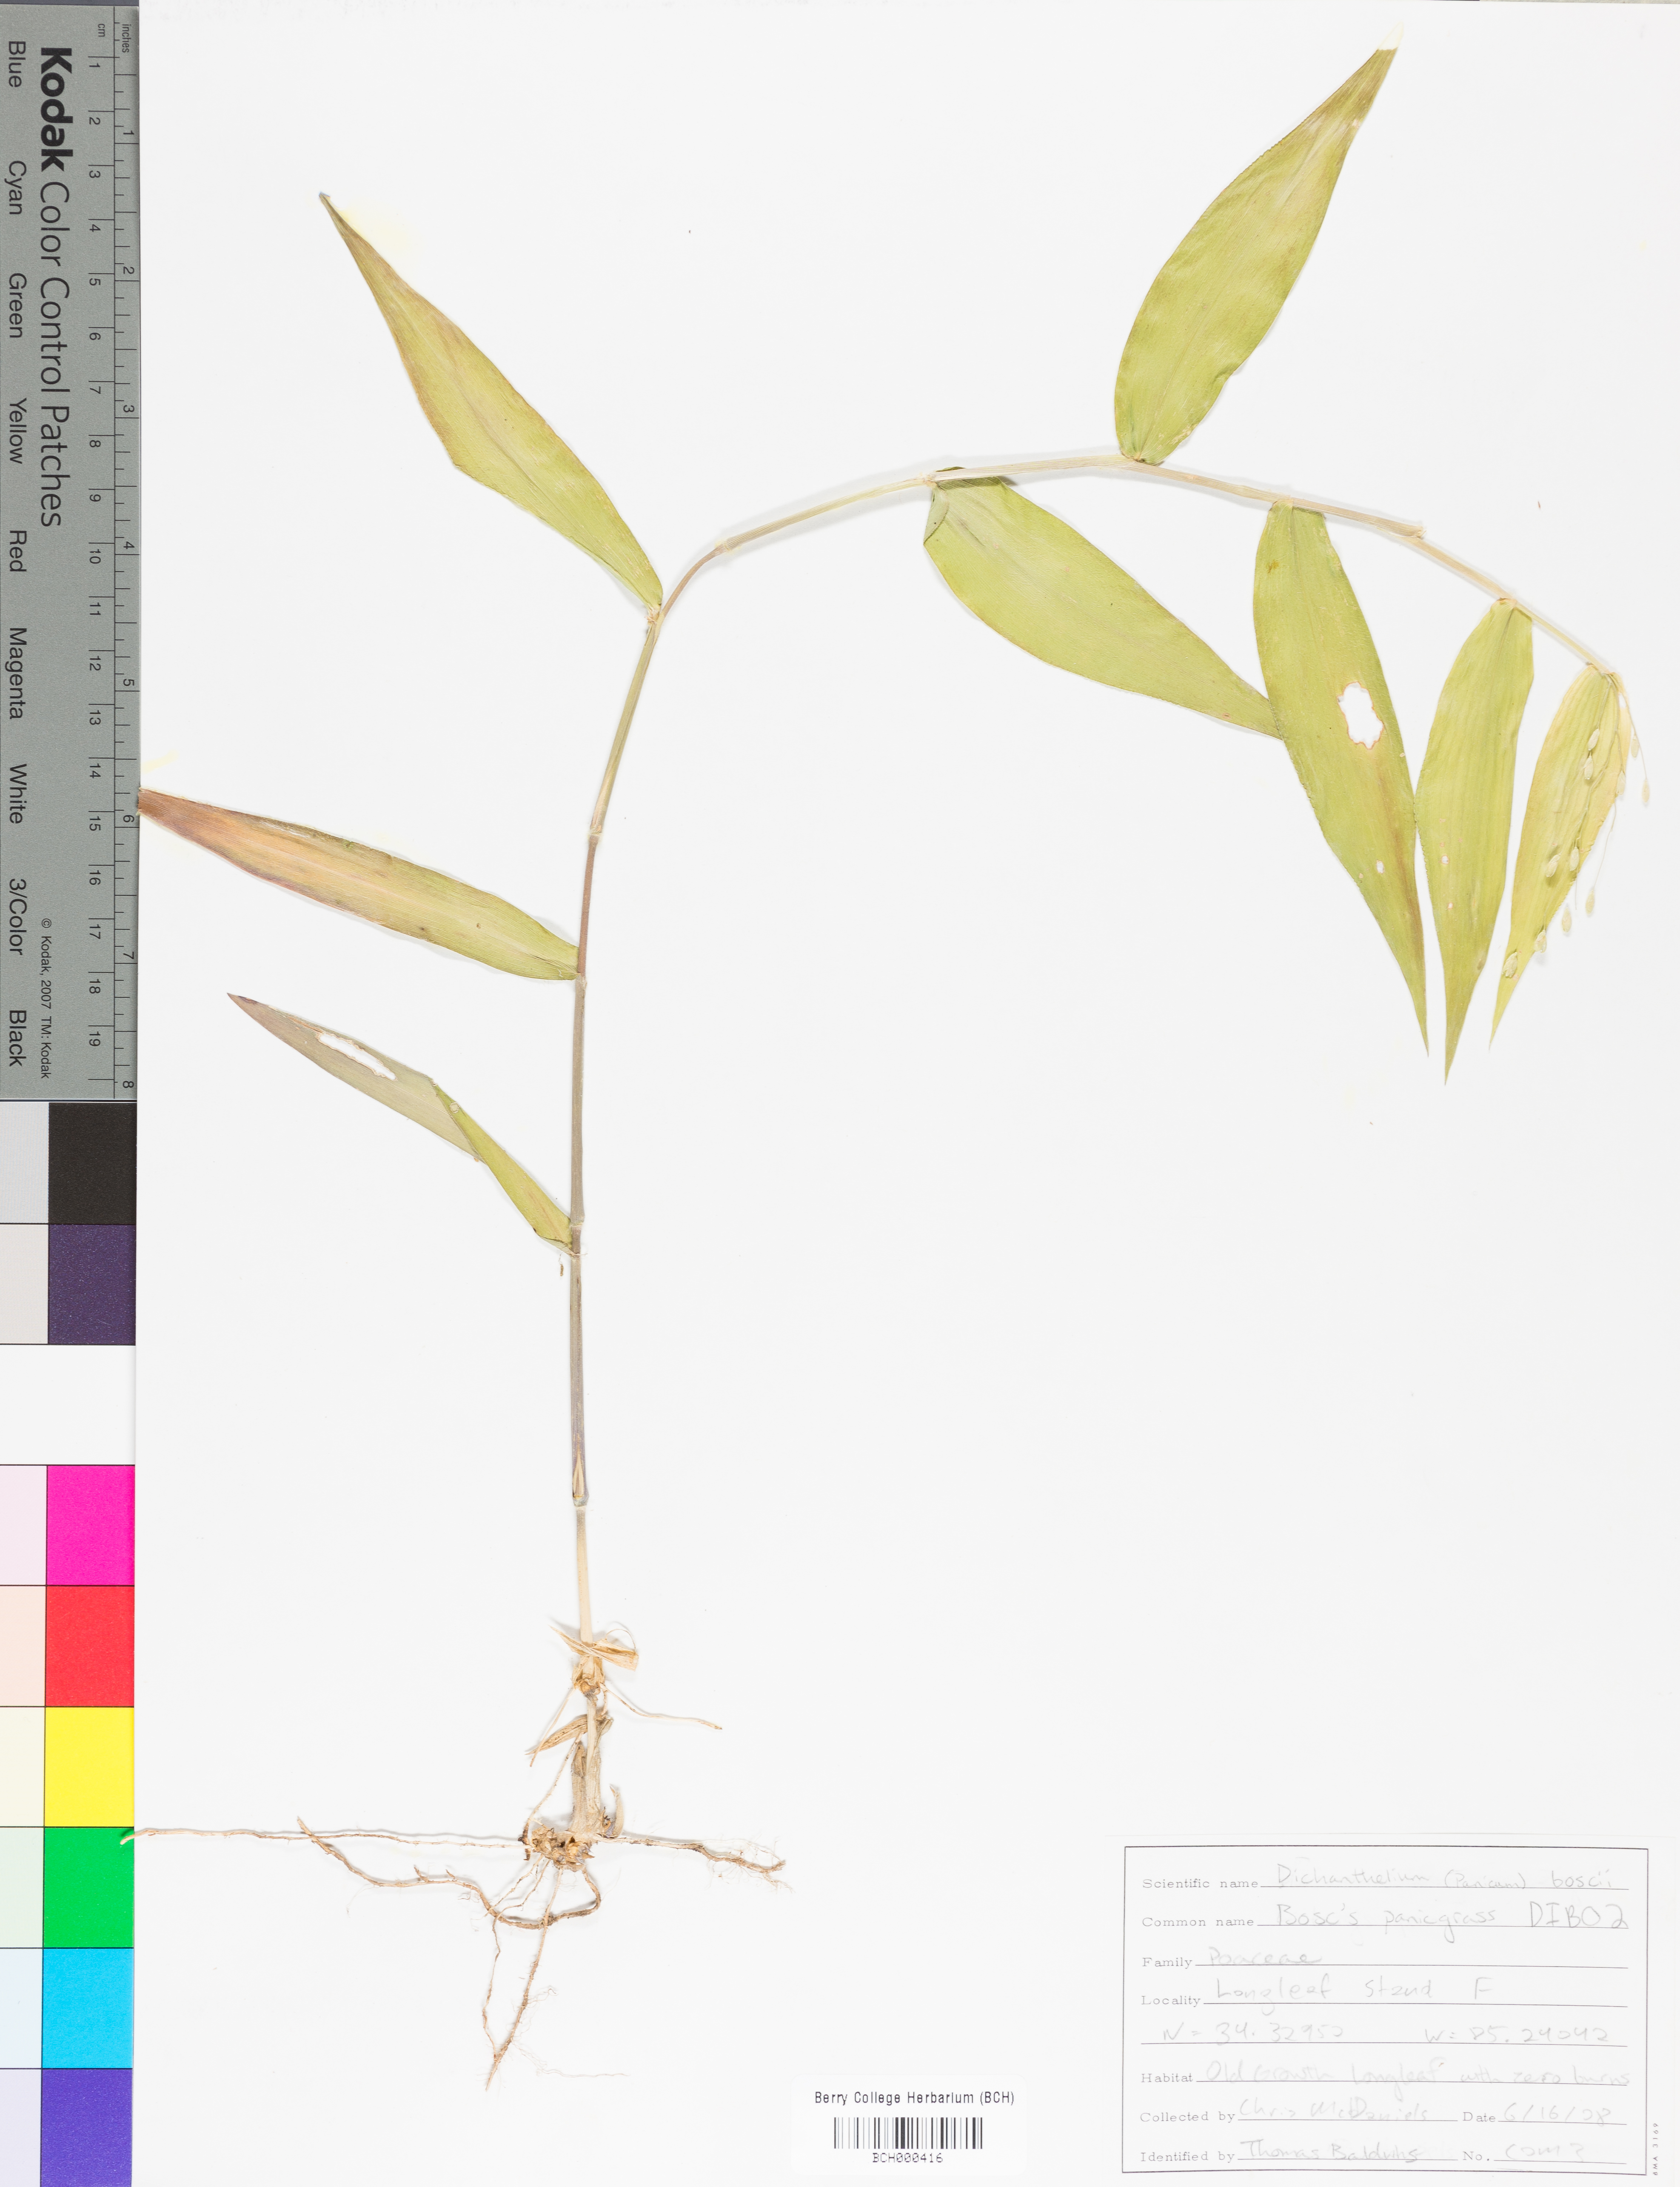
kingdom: Plantae
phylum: Tracheophyta
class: Liliopsida
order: Poales
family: Poaceae
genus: Dichanthelium
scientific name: Dichanthelium boscii
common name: Bosc's panic grass
